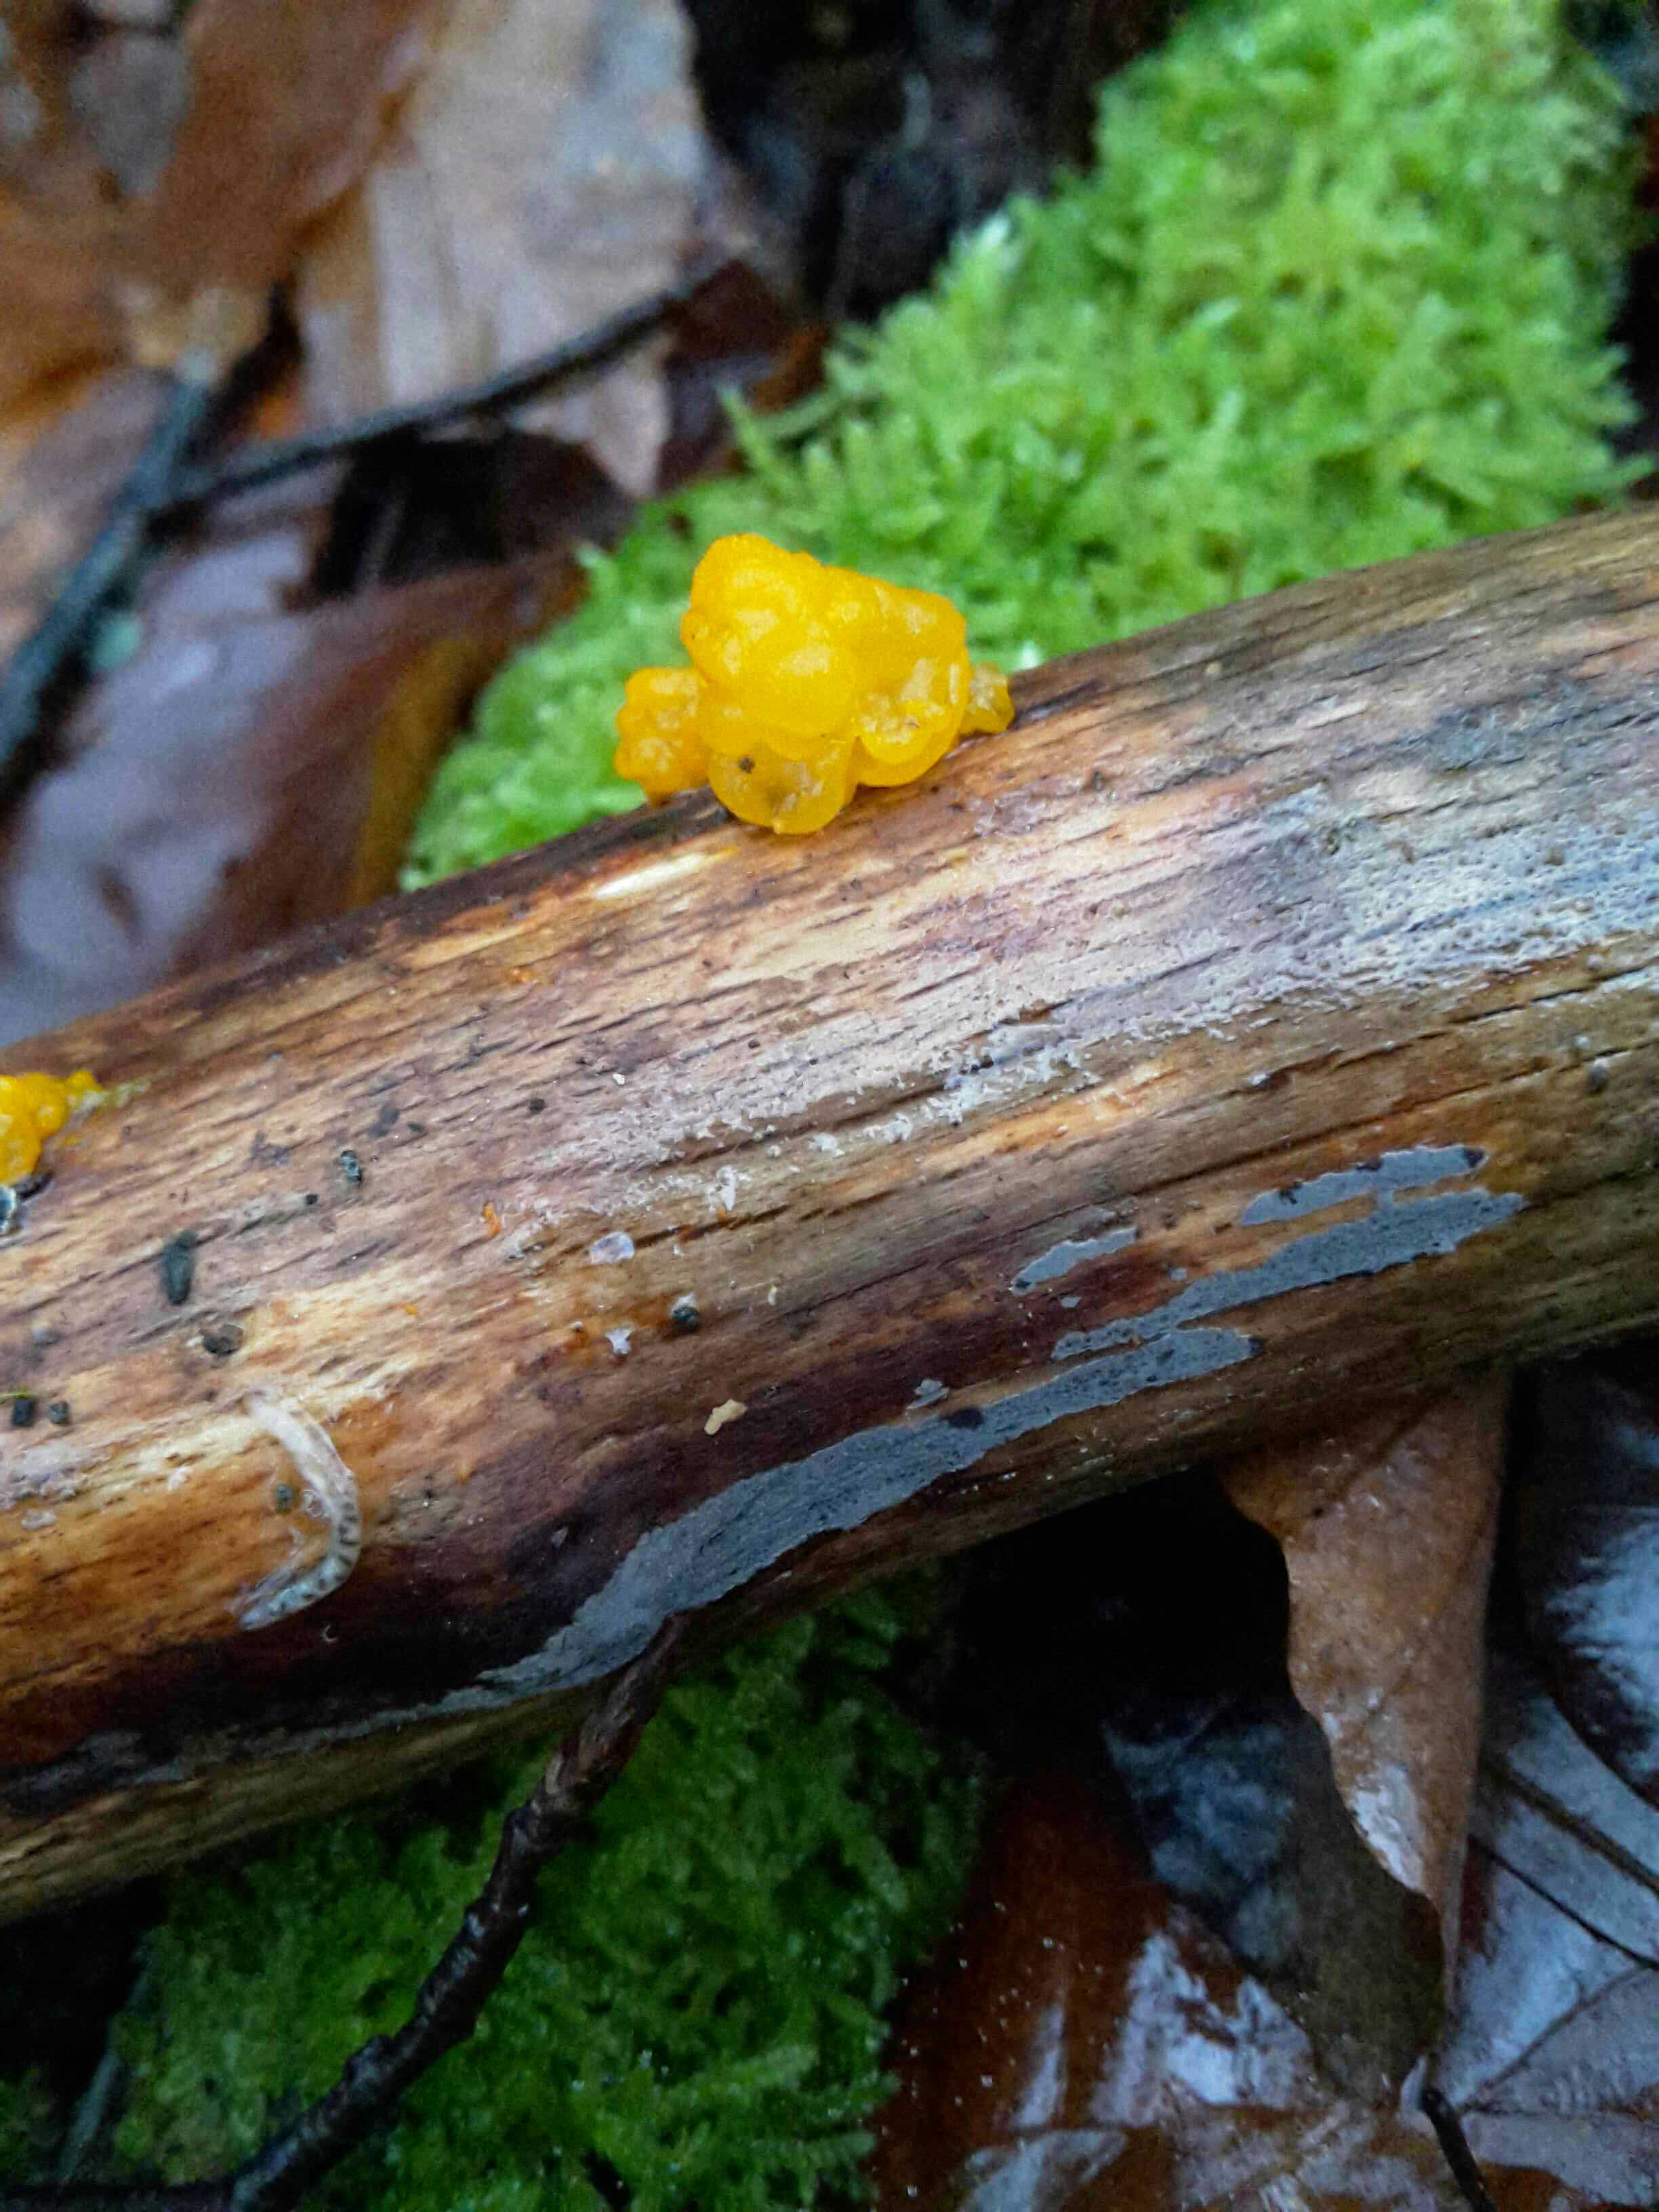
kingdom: Fungi
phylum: Basidiomycota
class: Tremellomycetes
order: Tremellales
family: Tremellaceae
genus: Tremella
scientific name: Tremella mesenterica
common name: gul bævresvamp
